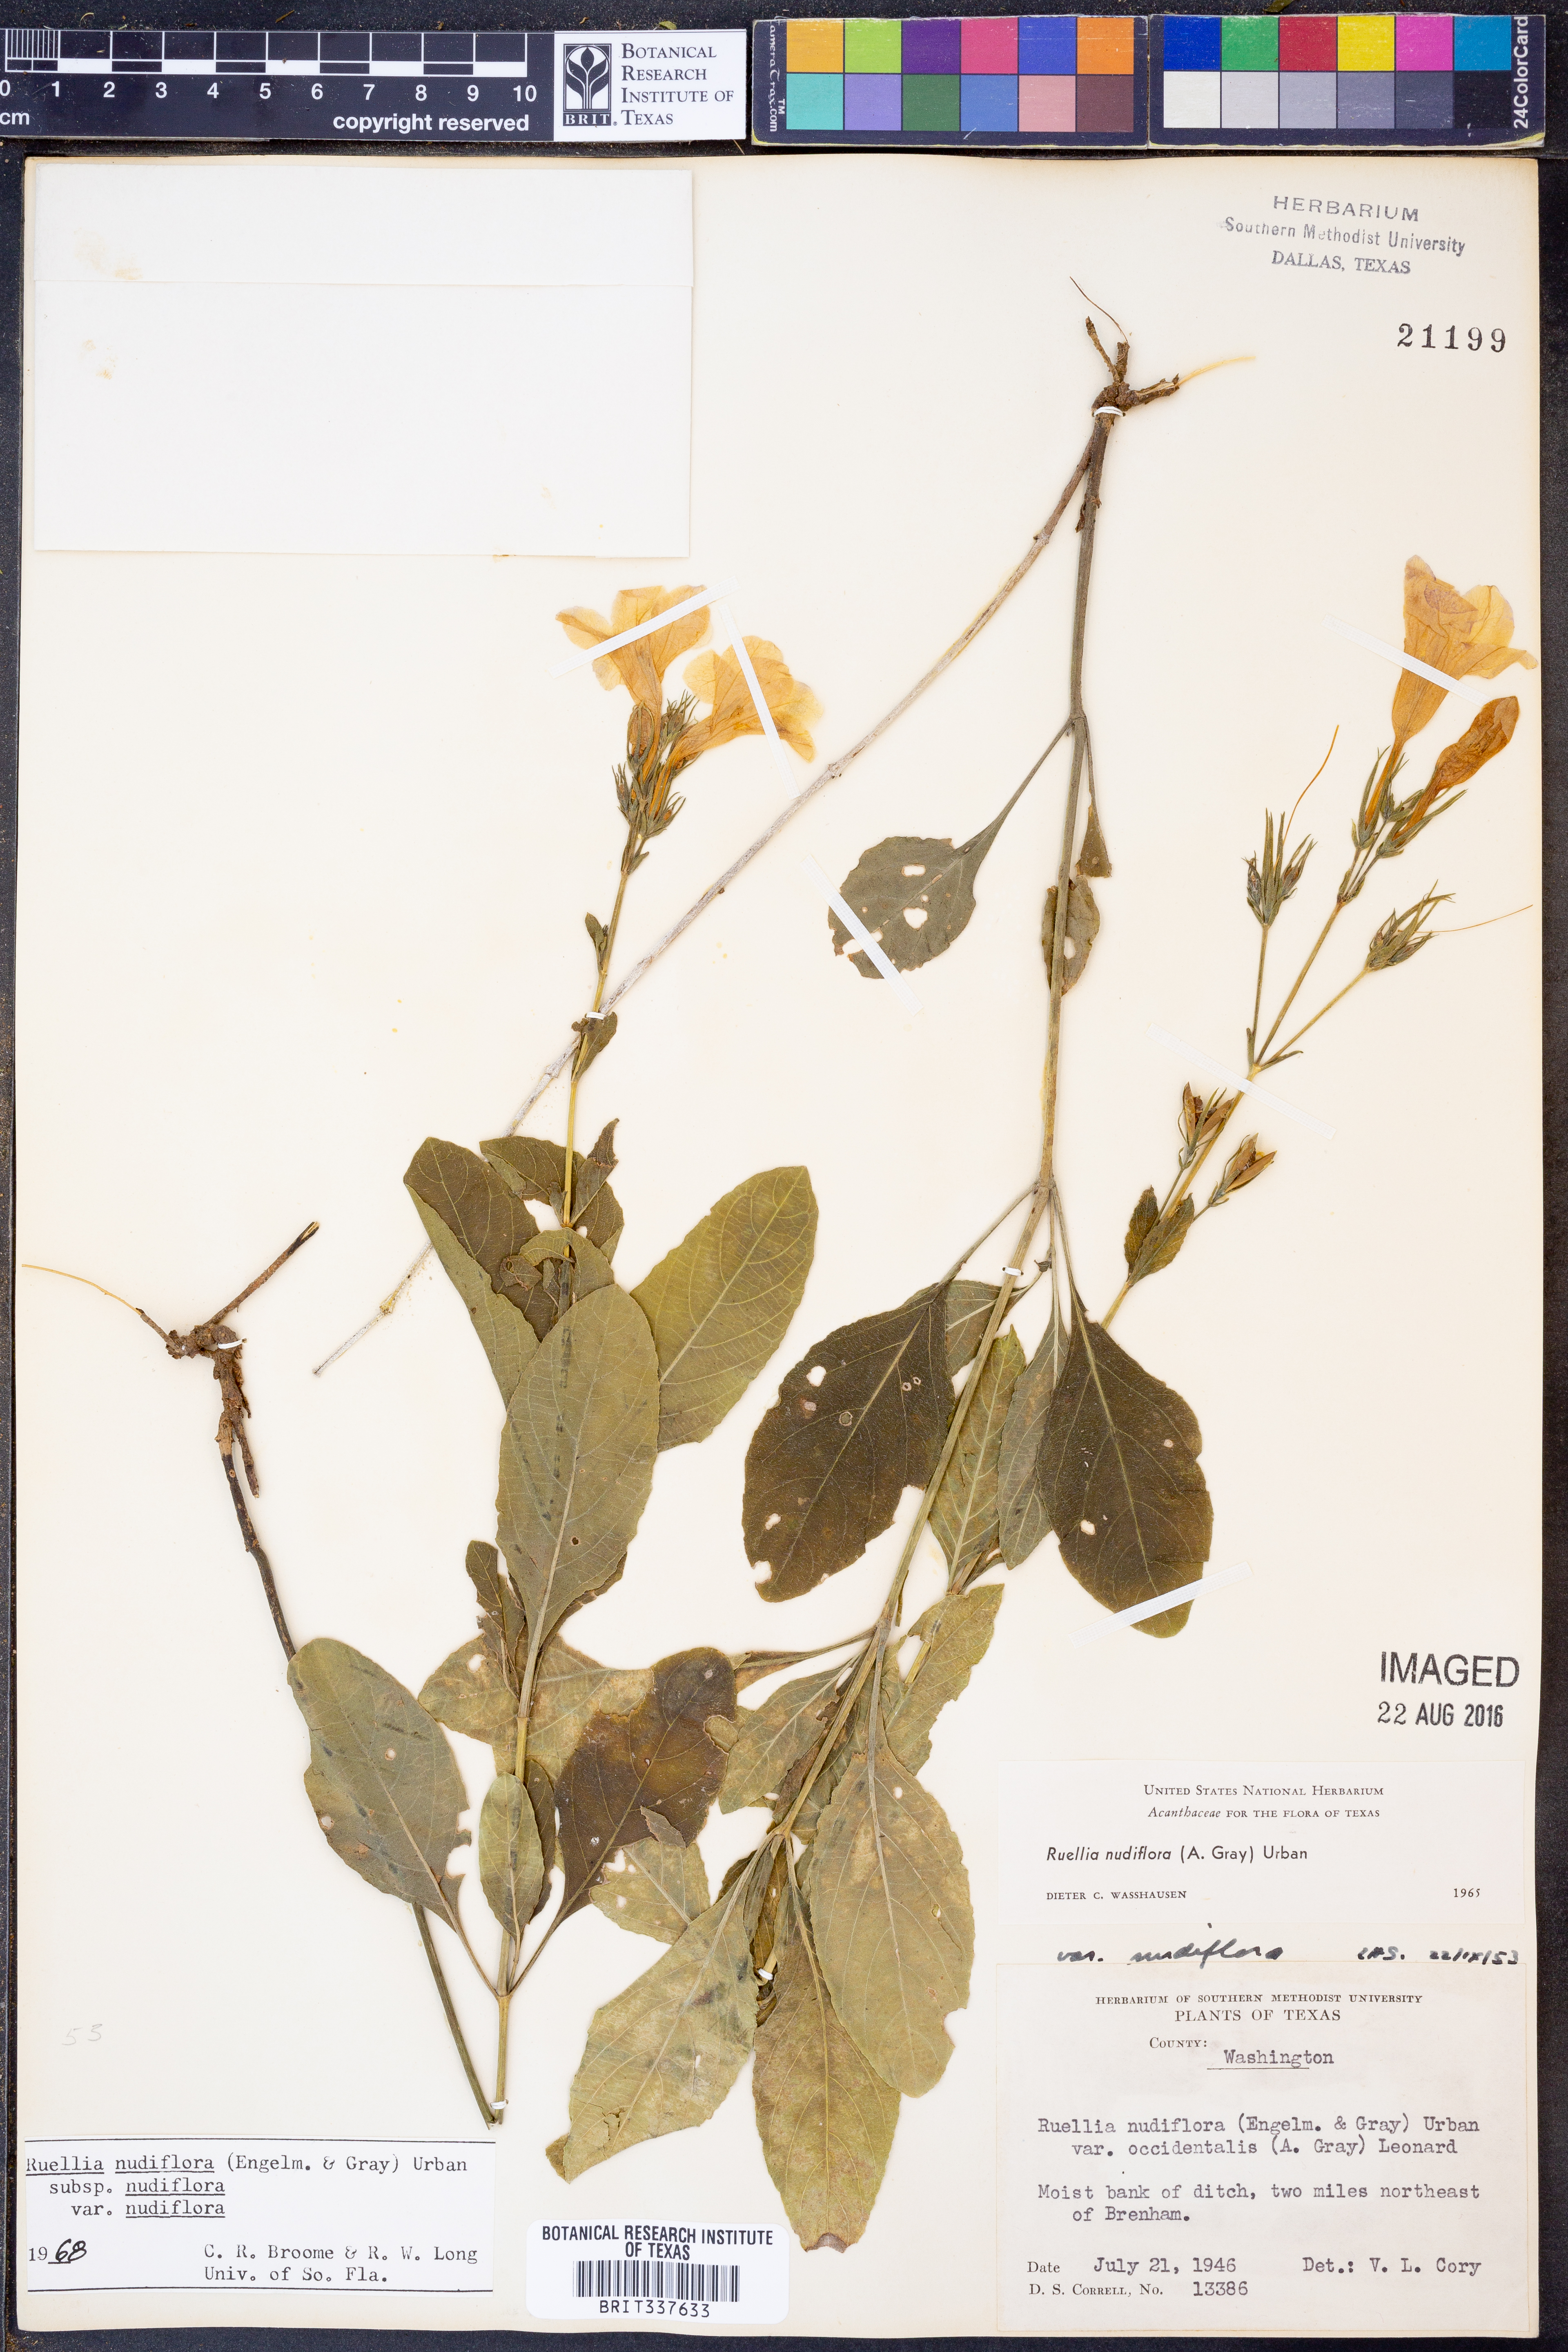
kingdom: Plantae
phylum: Tracheophyta
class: Magnoliopsida
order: Lamiales
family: Acanthaceae
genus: Ruellia
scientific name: Ruellia ciliatiflora
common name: Hairyflower wild petunia
